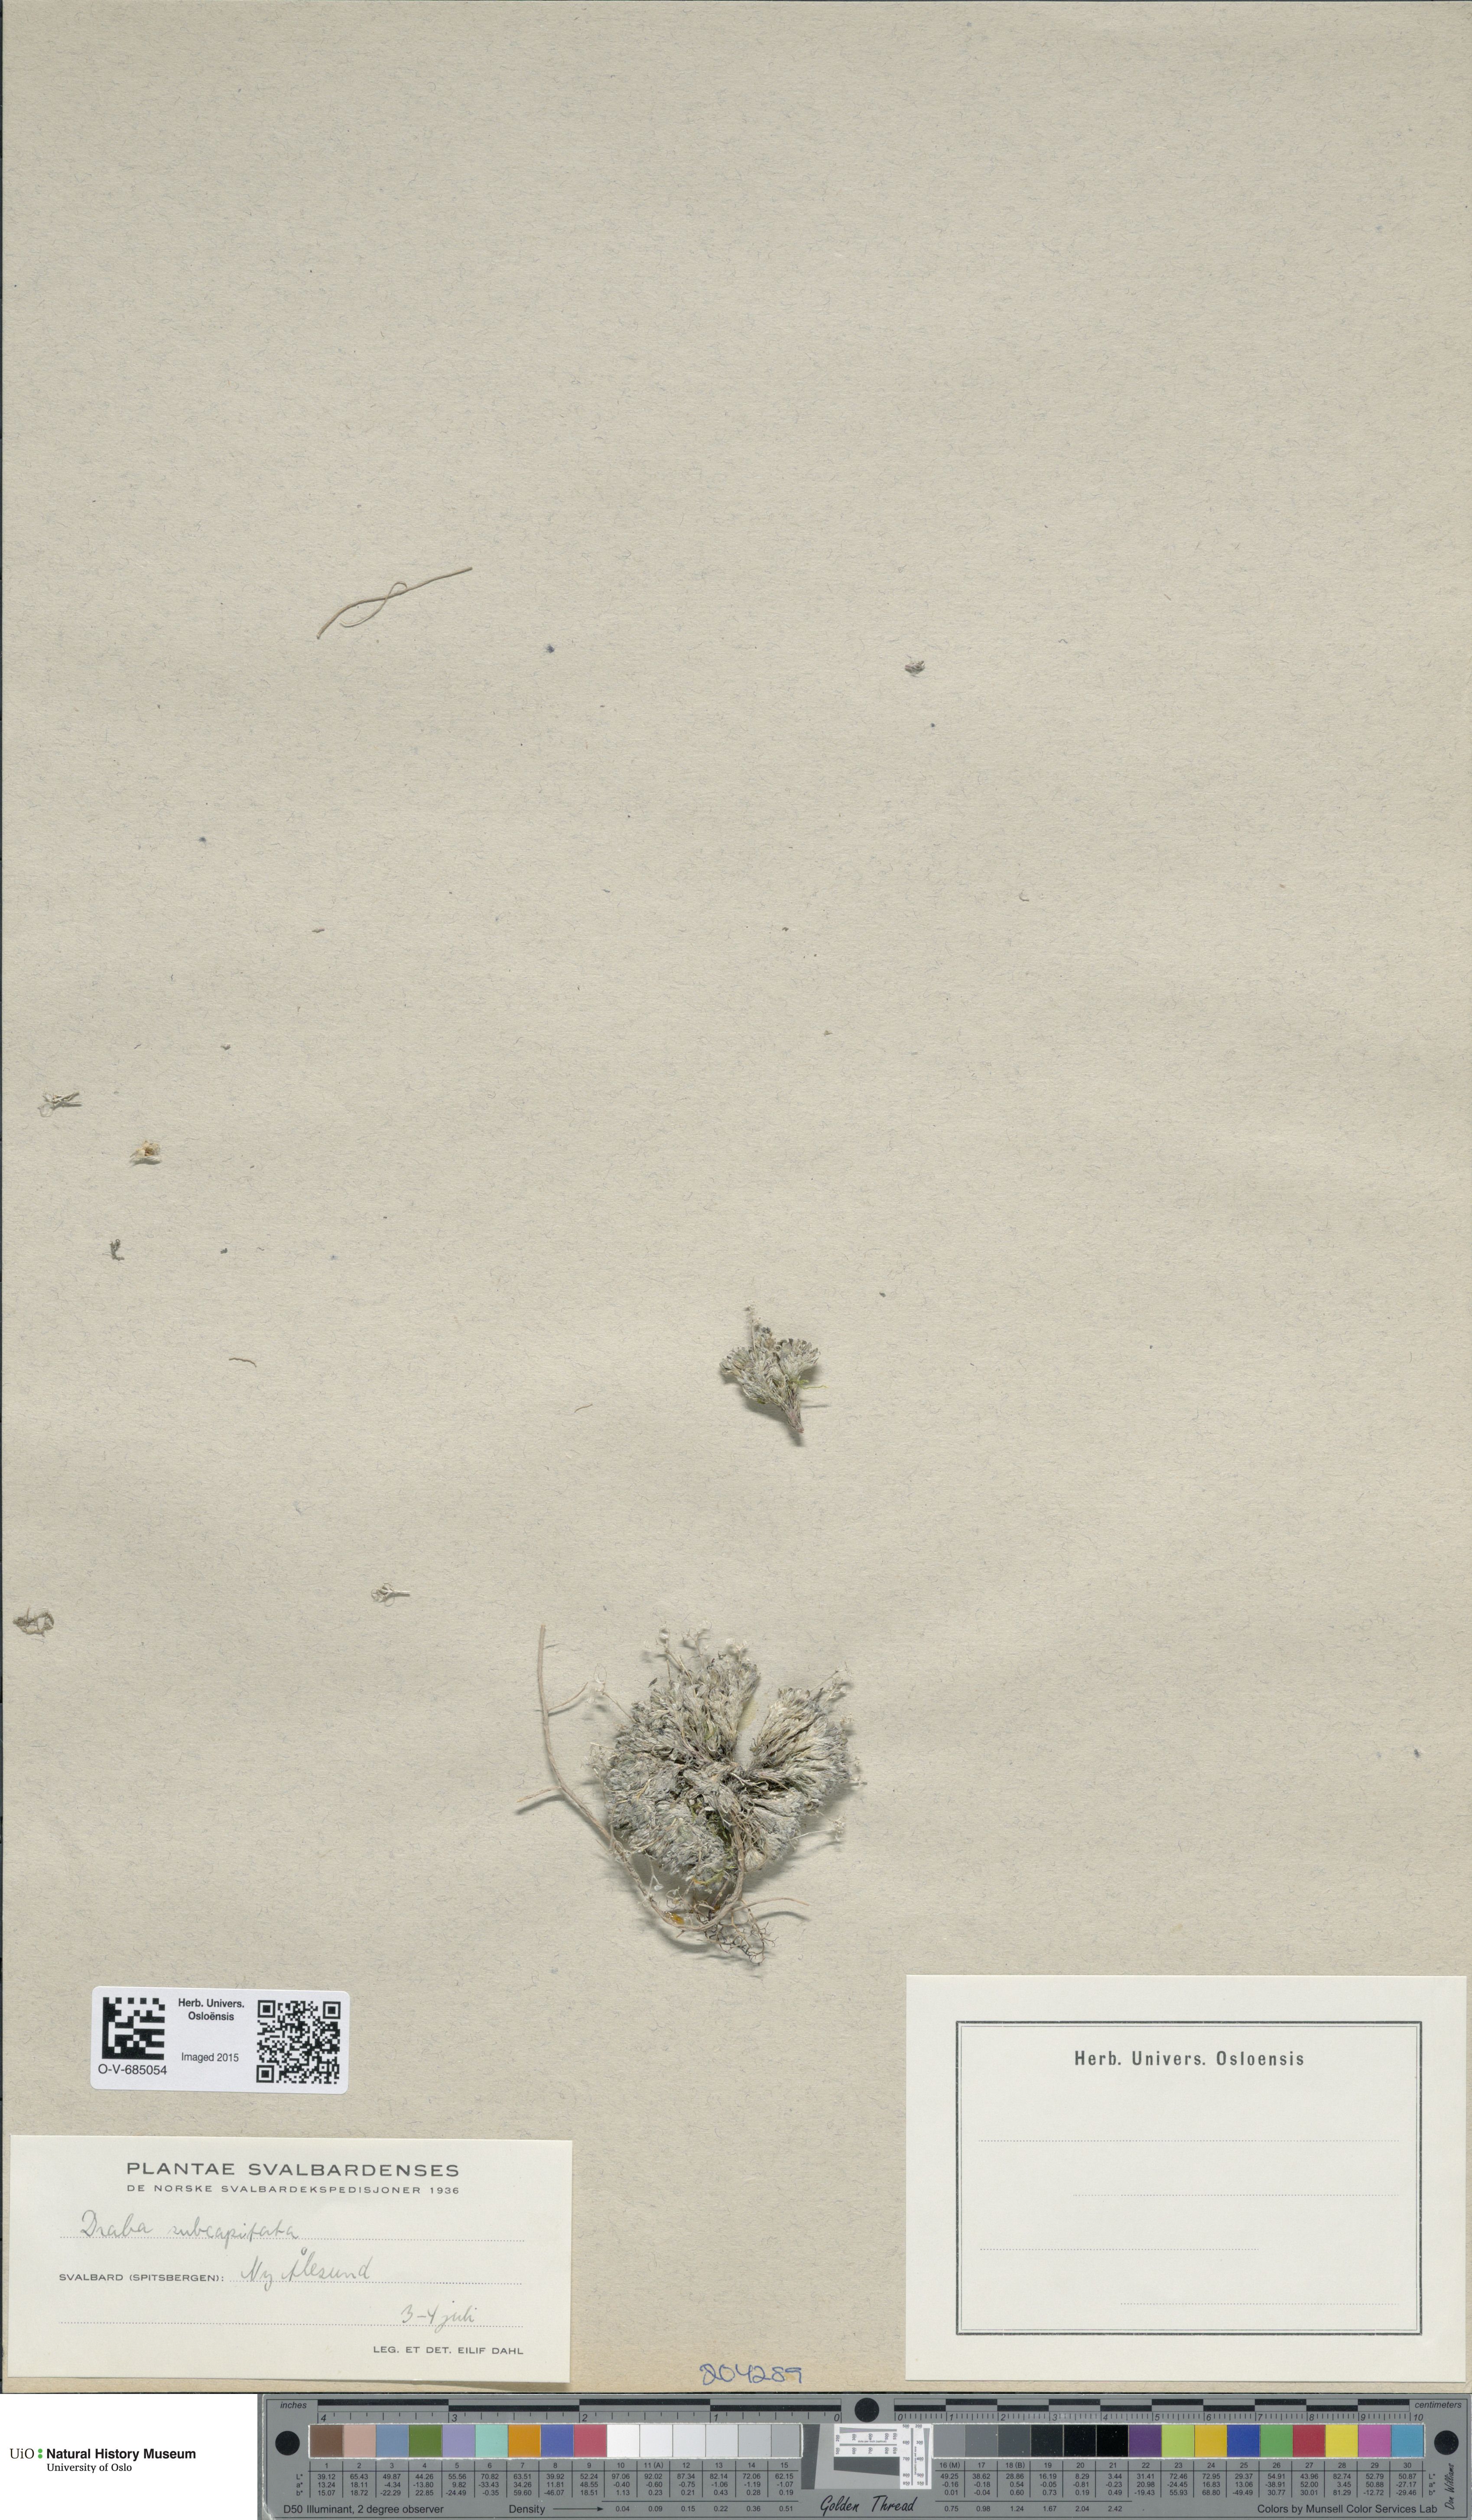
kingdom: Plantae
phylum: Tracheophyta
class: Magnoliopsida
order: Brassicales
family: Brassicaceae
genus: Draba
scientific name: Draba subcapitata
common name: Ellesmere island draba
